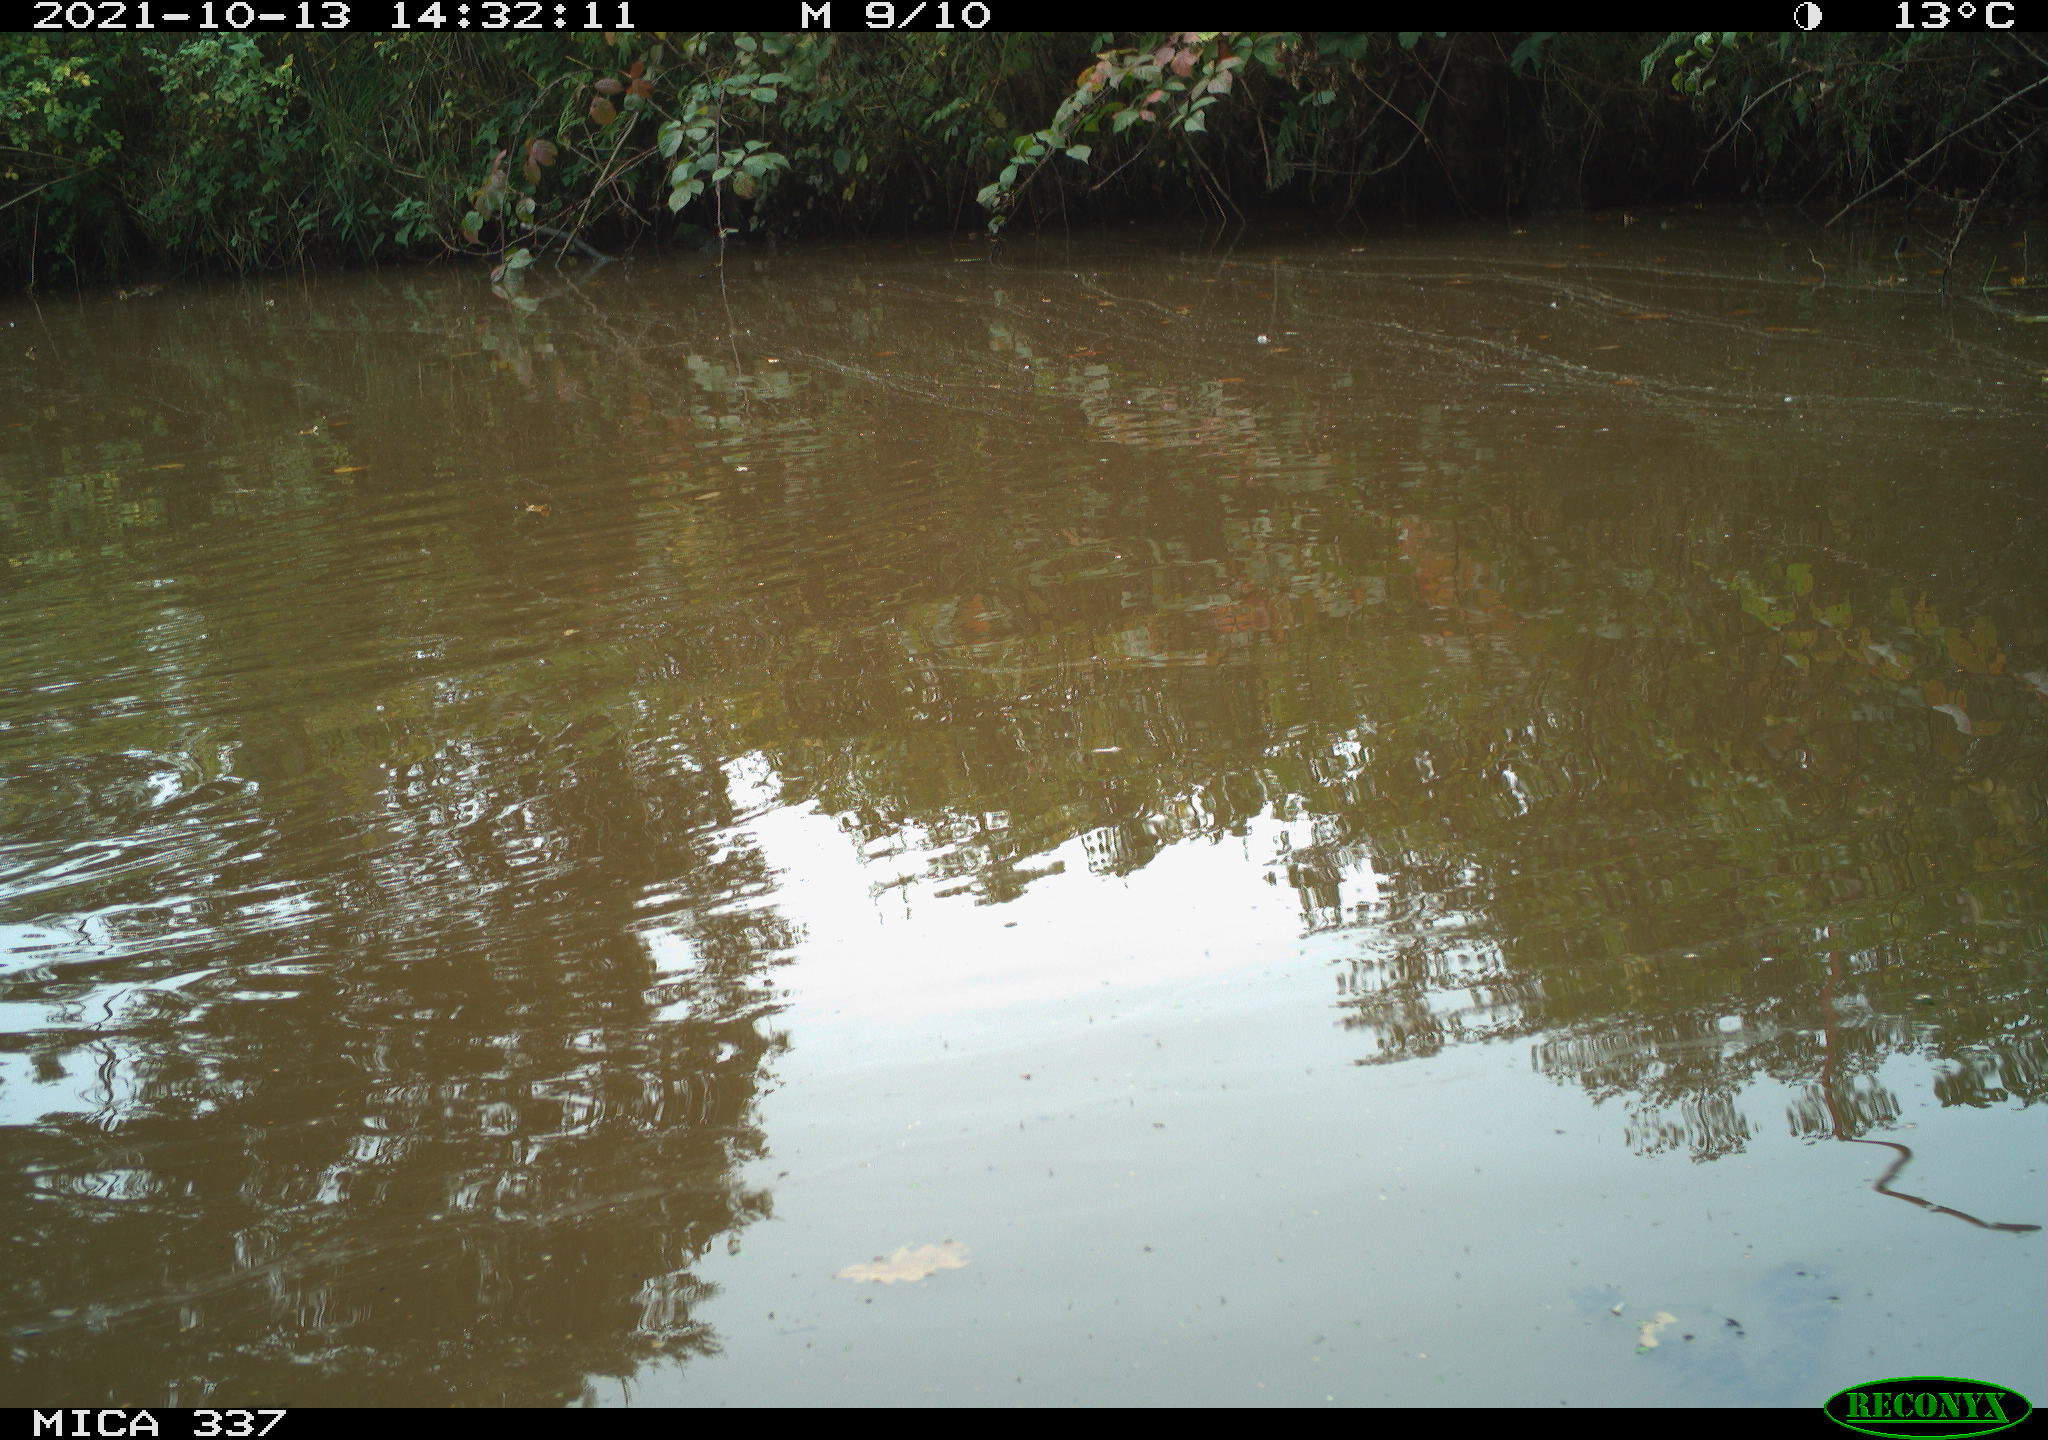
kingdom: Animalia
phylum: Chordata
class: Aves
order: Anseriformes
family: Anatidae
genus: Anas
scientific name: Anas platyrhynchos
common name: Mallard
